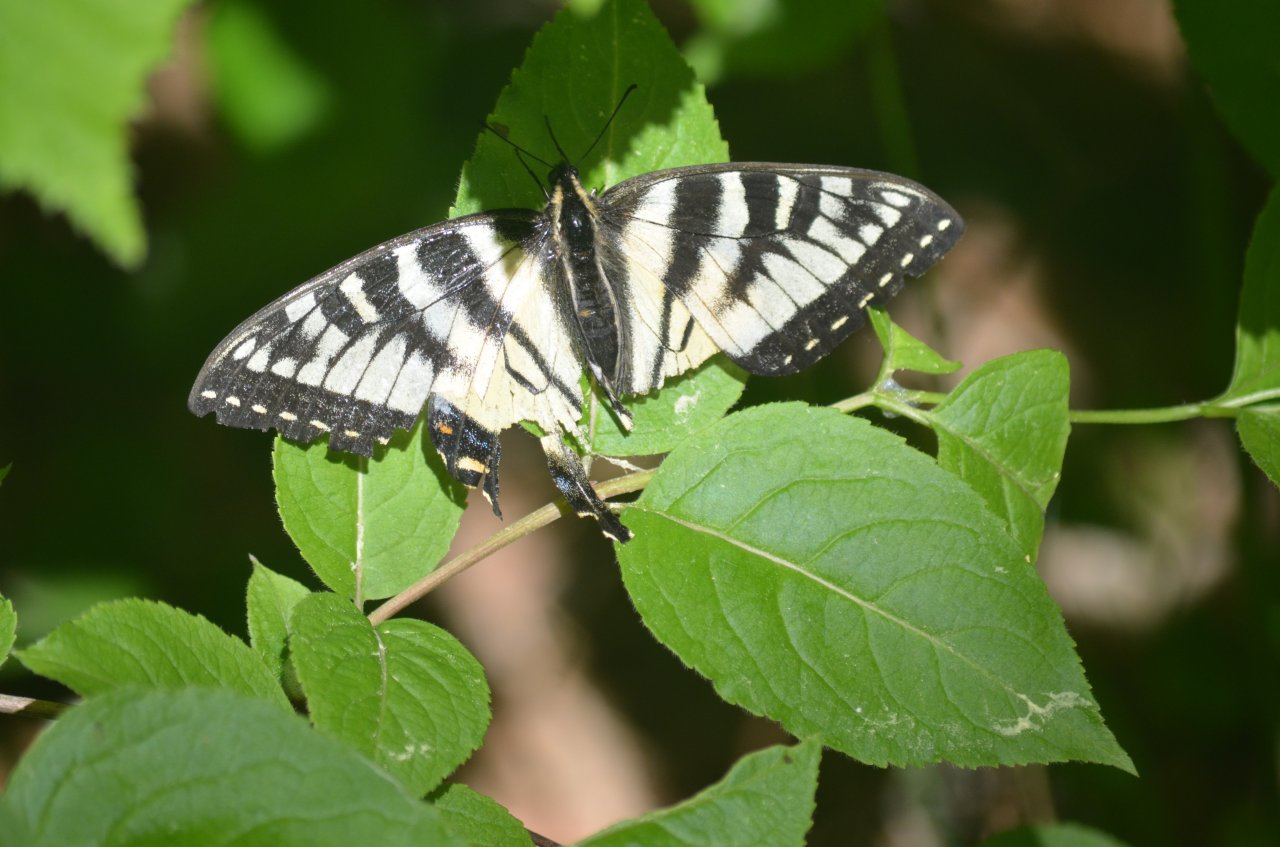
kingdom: Animalia
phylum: Arthropoda
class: Insecta
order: Lepidoptera
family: Papilionidae
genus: Pterourus
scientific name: Pterourus canadensis
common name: Canadian Tiger Swallowtail
